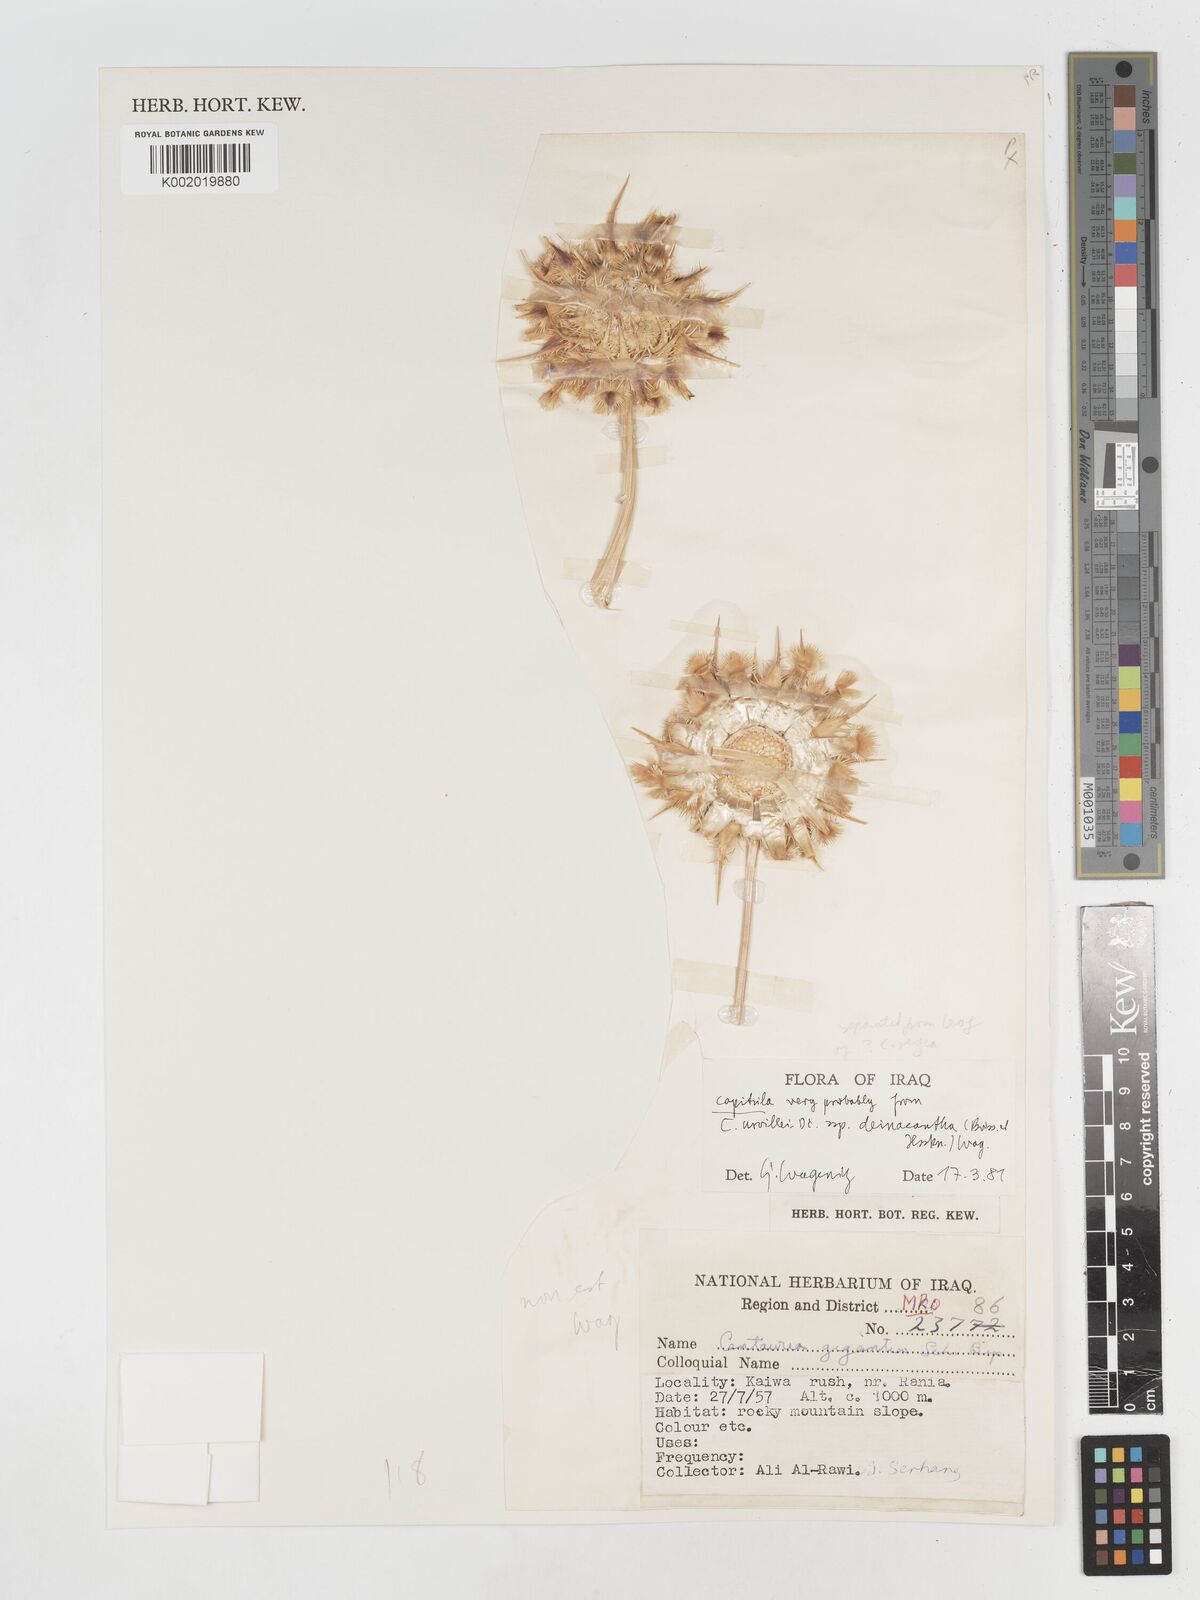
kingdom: Plantae
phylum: Tracheophyta
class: Magnoliopsida
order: Asterales
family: Asteraceae
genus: Centaurea
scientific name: Centaurea urvillei
